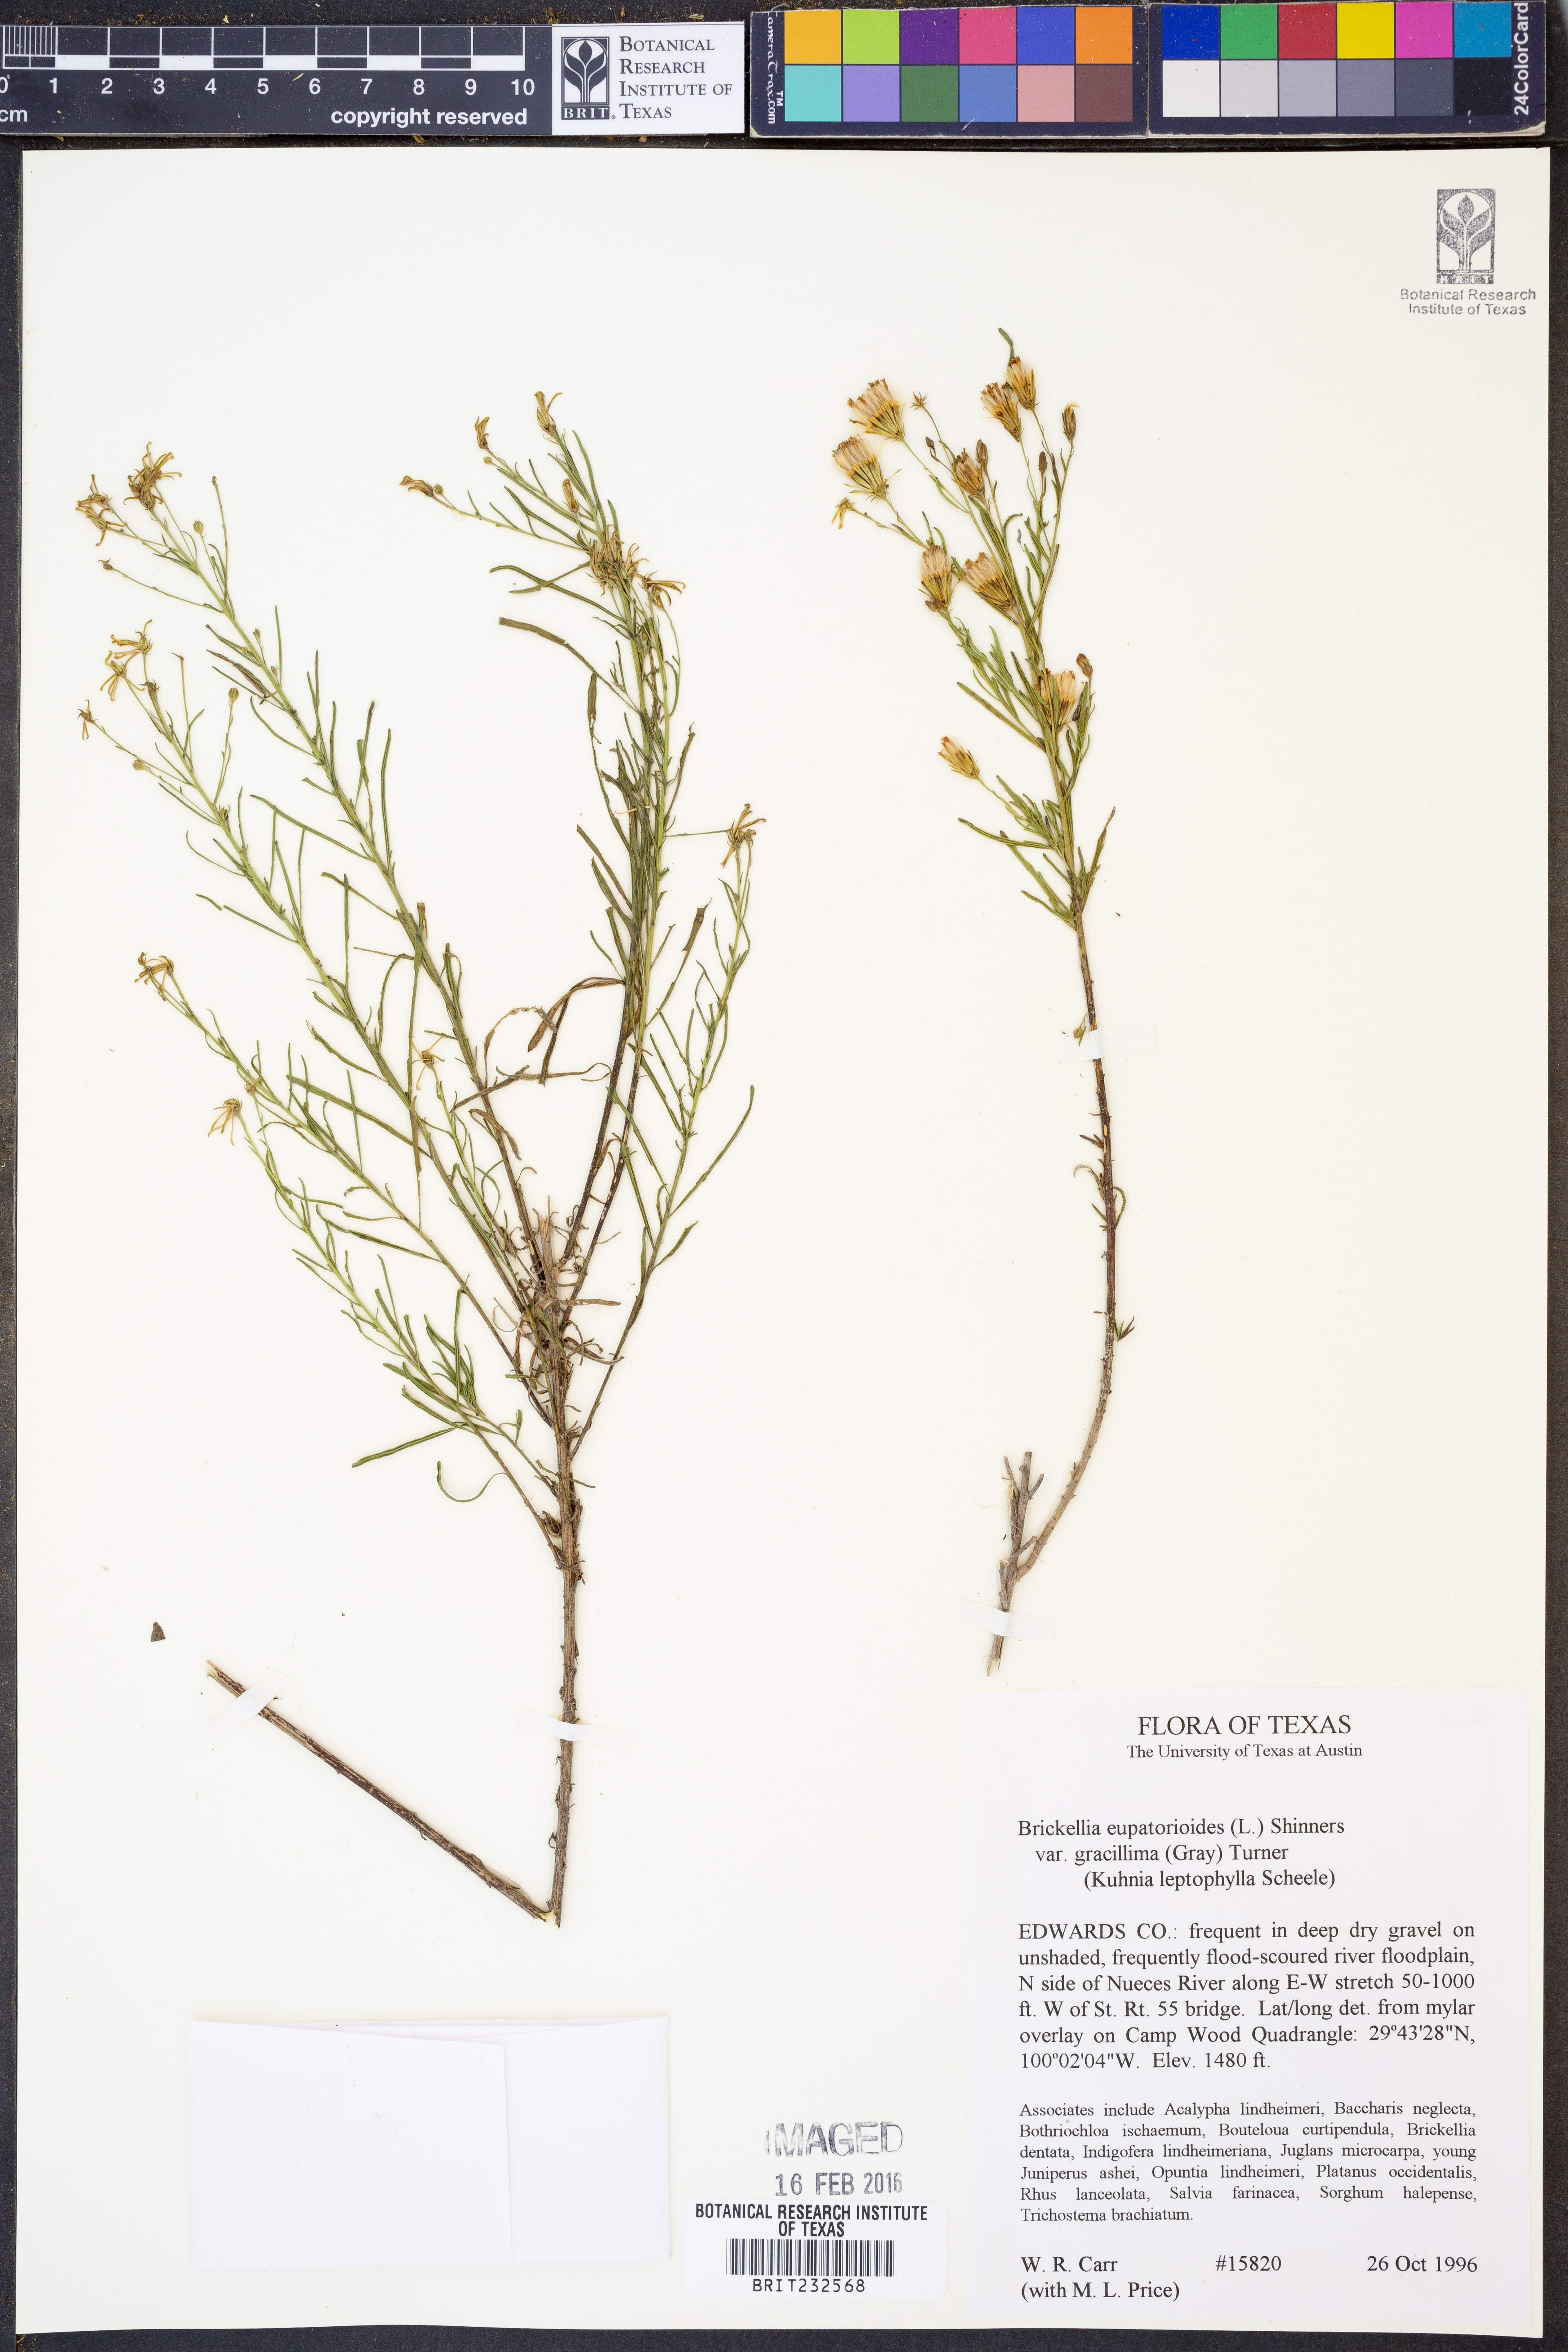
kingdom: Plantae
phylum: Tracheophyta
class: Magnoliopsida
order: Asterales
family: Asteraceae
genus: Brickellia
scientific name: Brickellia leptophylla
